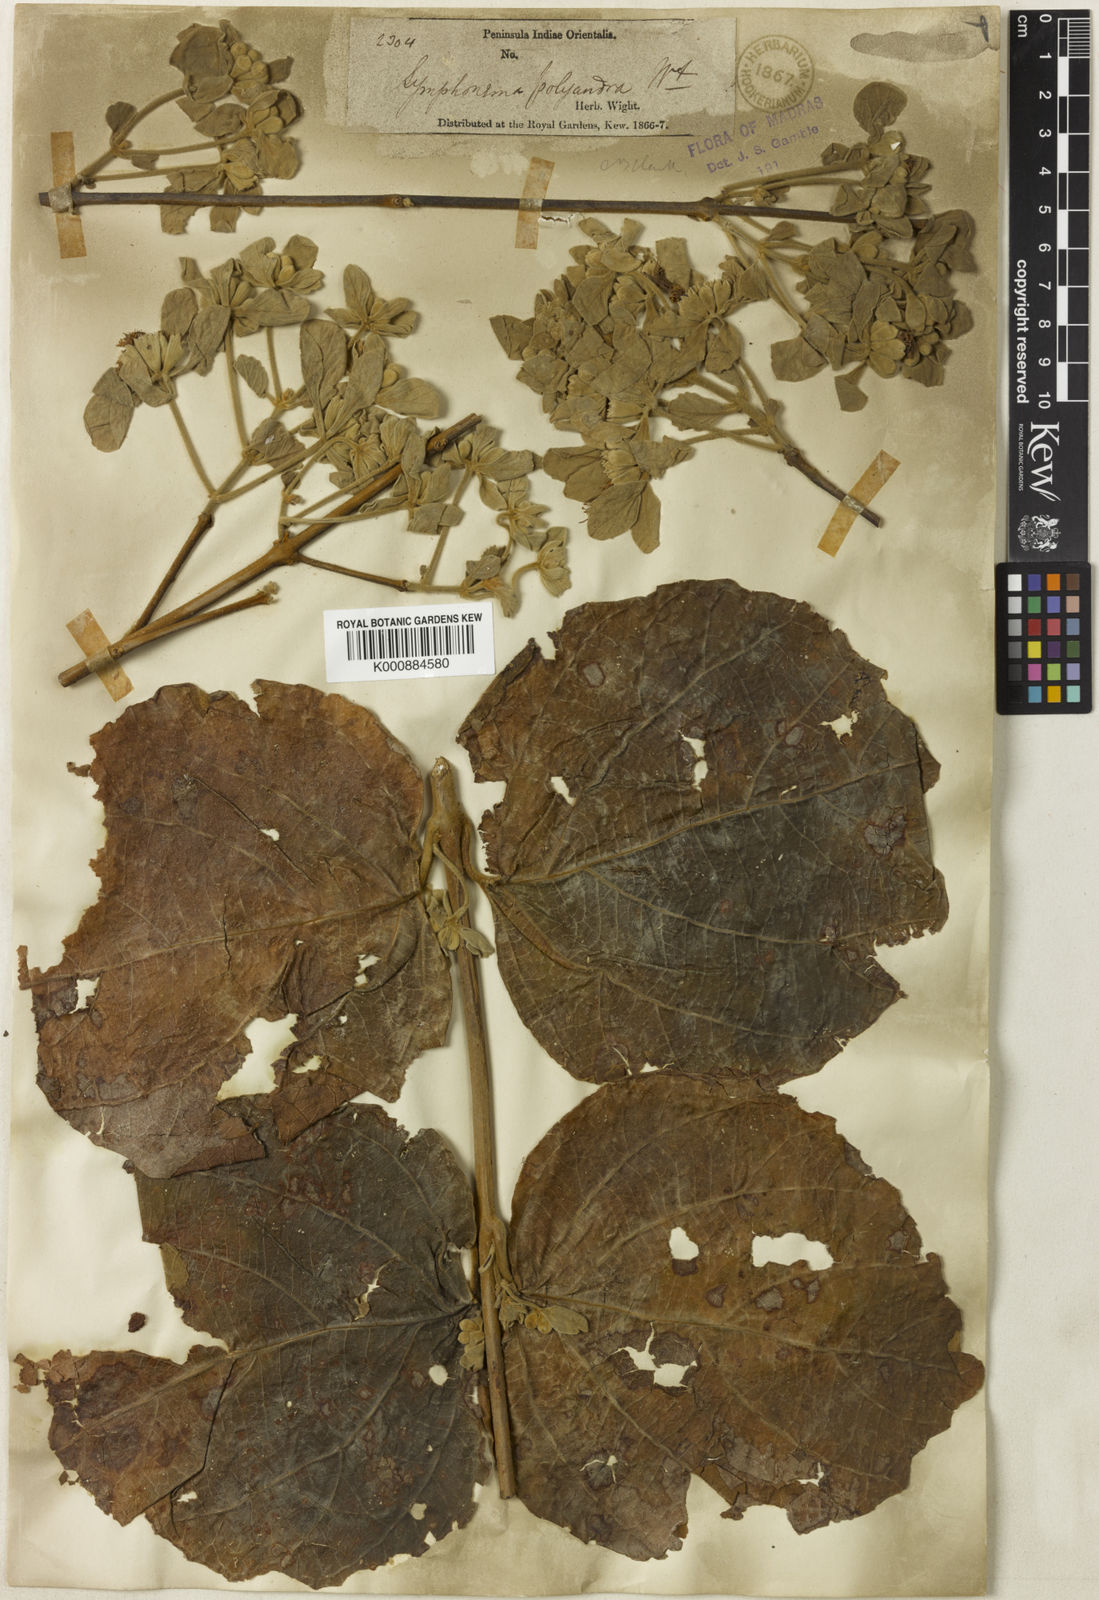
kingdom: Plantae
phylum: Tracheophyta
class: Magnoliopsida
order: Lamiales
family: Lamiaceae
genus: Symphorema
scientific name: Symphorema polyandrum
